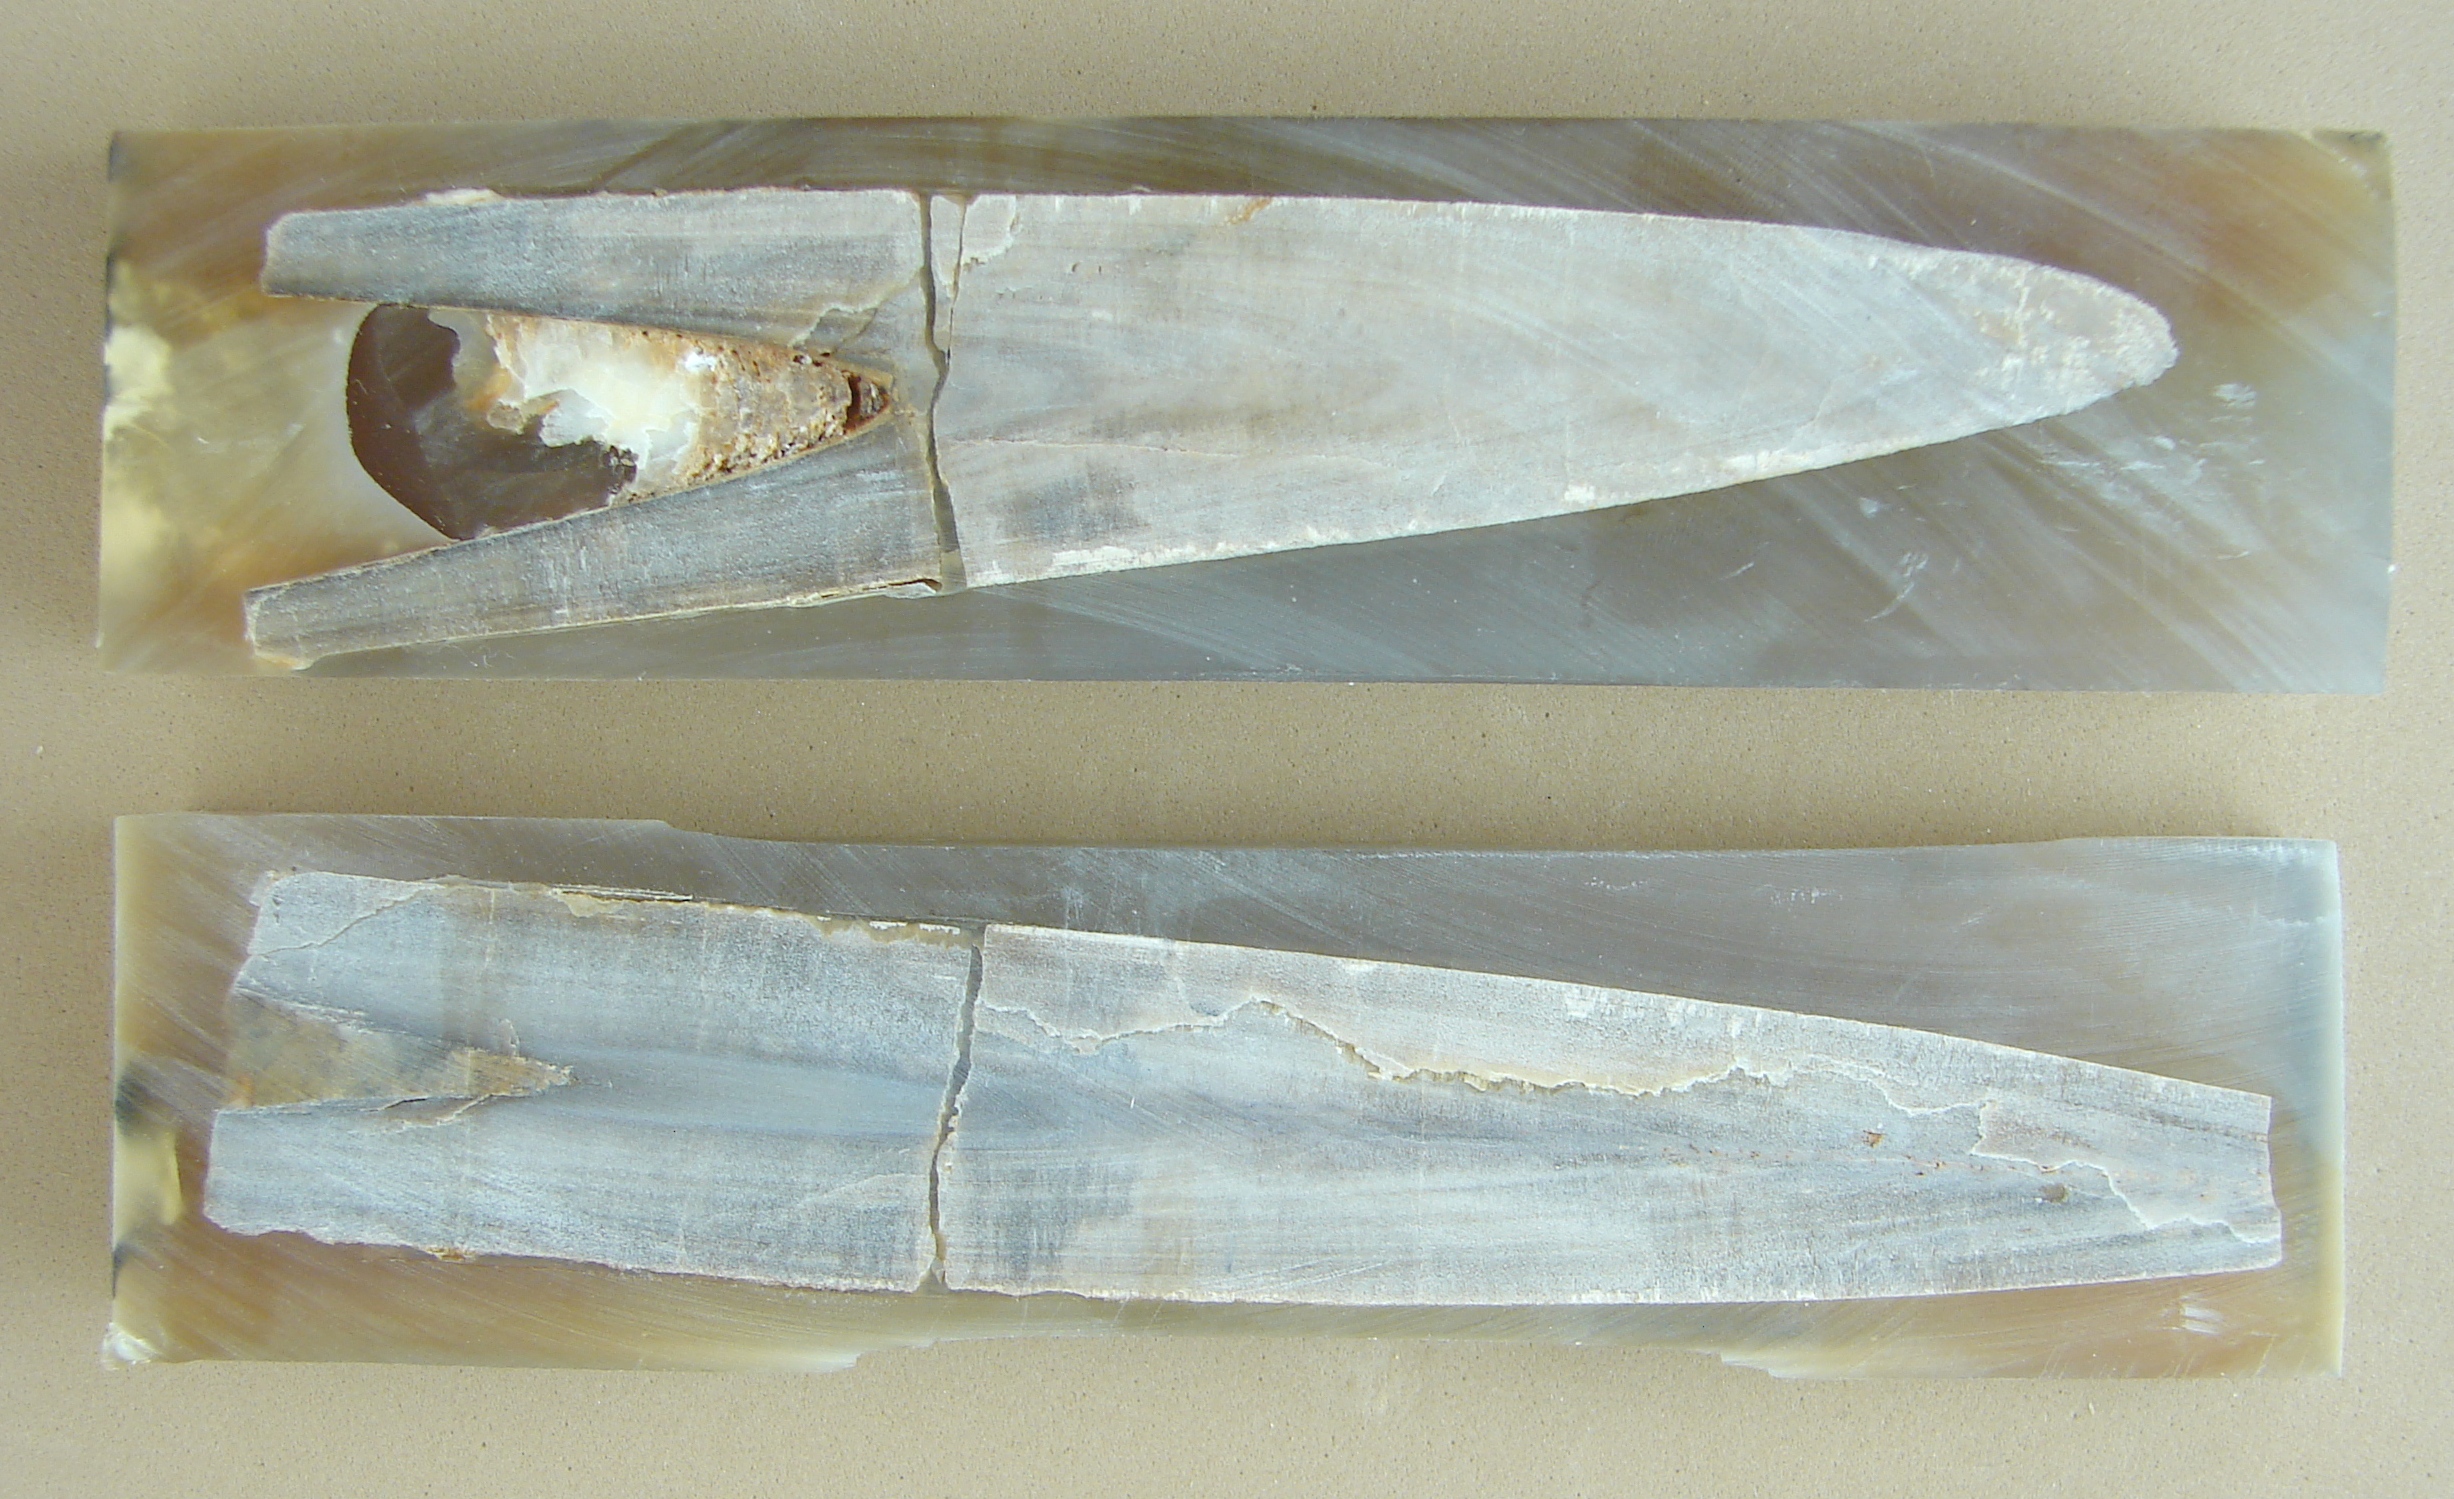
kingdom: Animalia
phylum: Mollusca
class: Cephalopoda
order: Belemnitida
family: Megateuthididae
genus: Megateuthis
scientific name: Megateuthis
